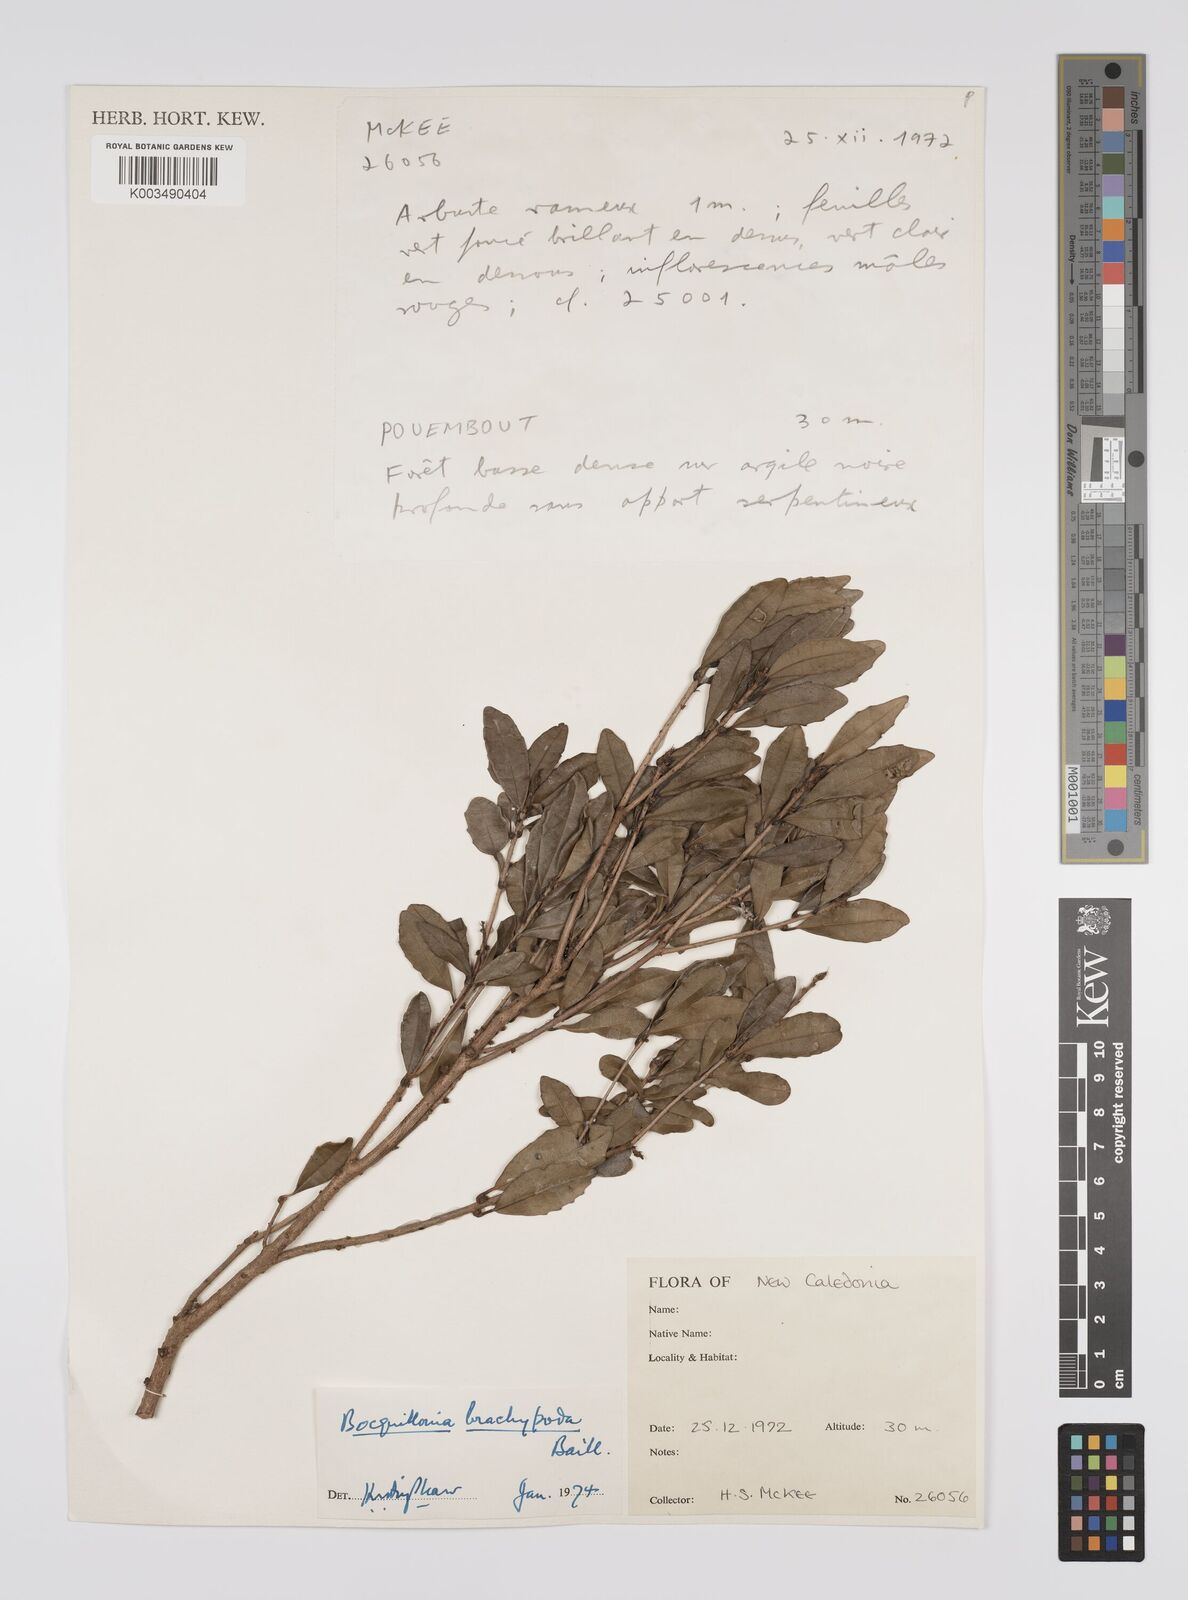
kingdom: Plantae
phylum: Tracheophyta
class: Magnoliopsida
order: Malpighiales
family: Euphorbiaceae
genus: Bocquillonia
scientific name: Bocquillonia brachypoda
